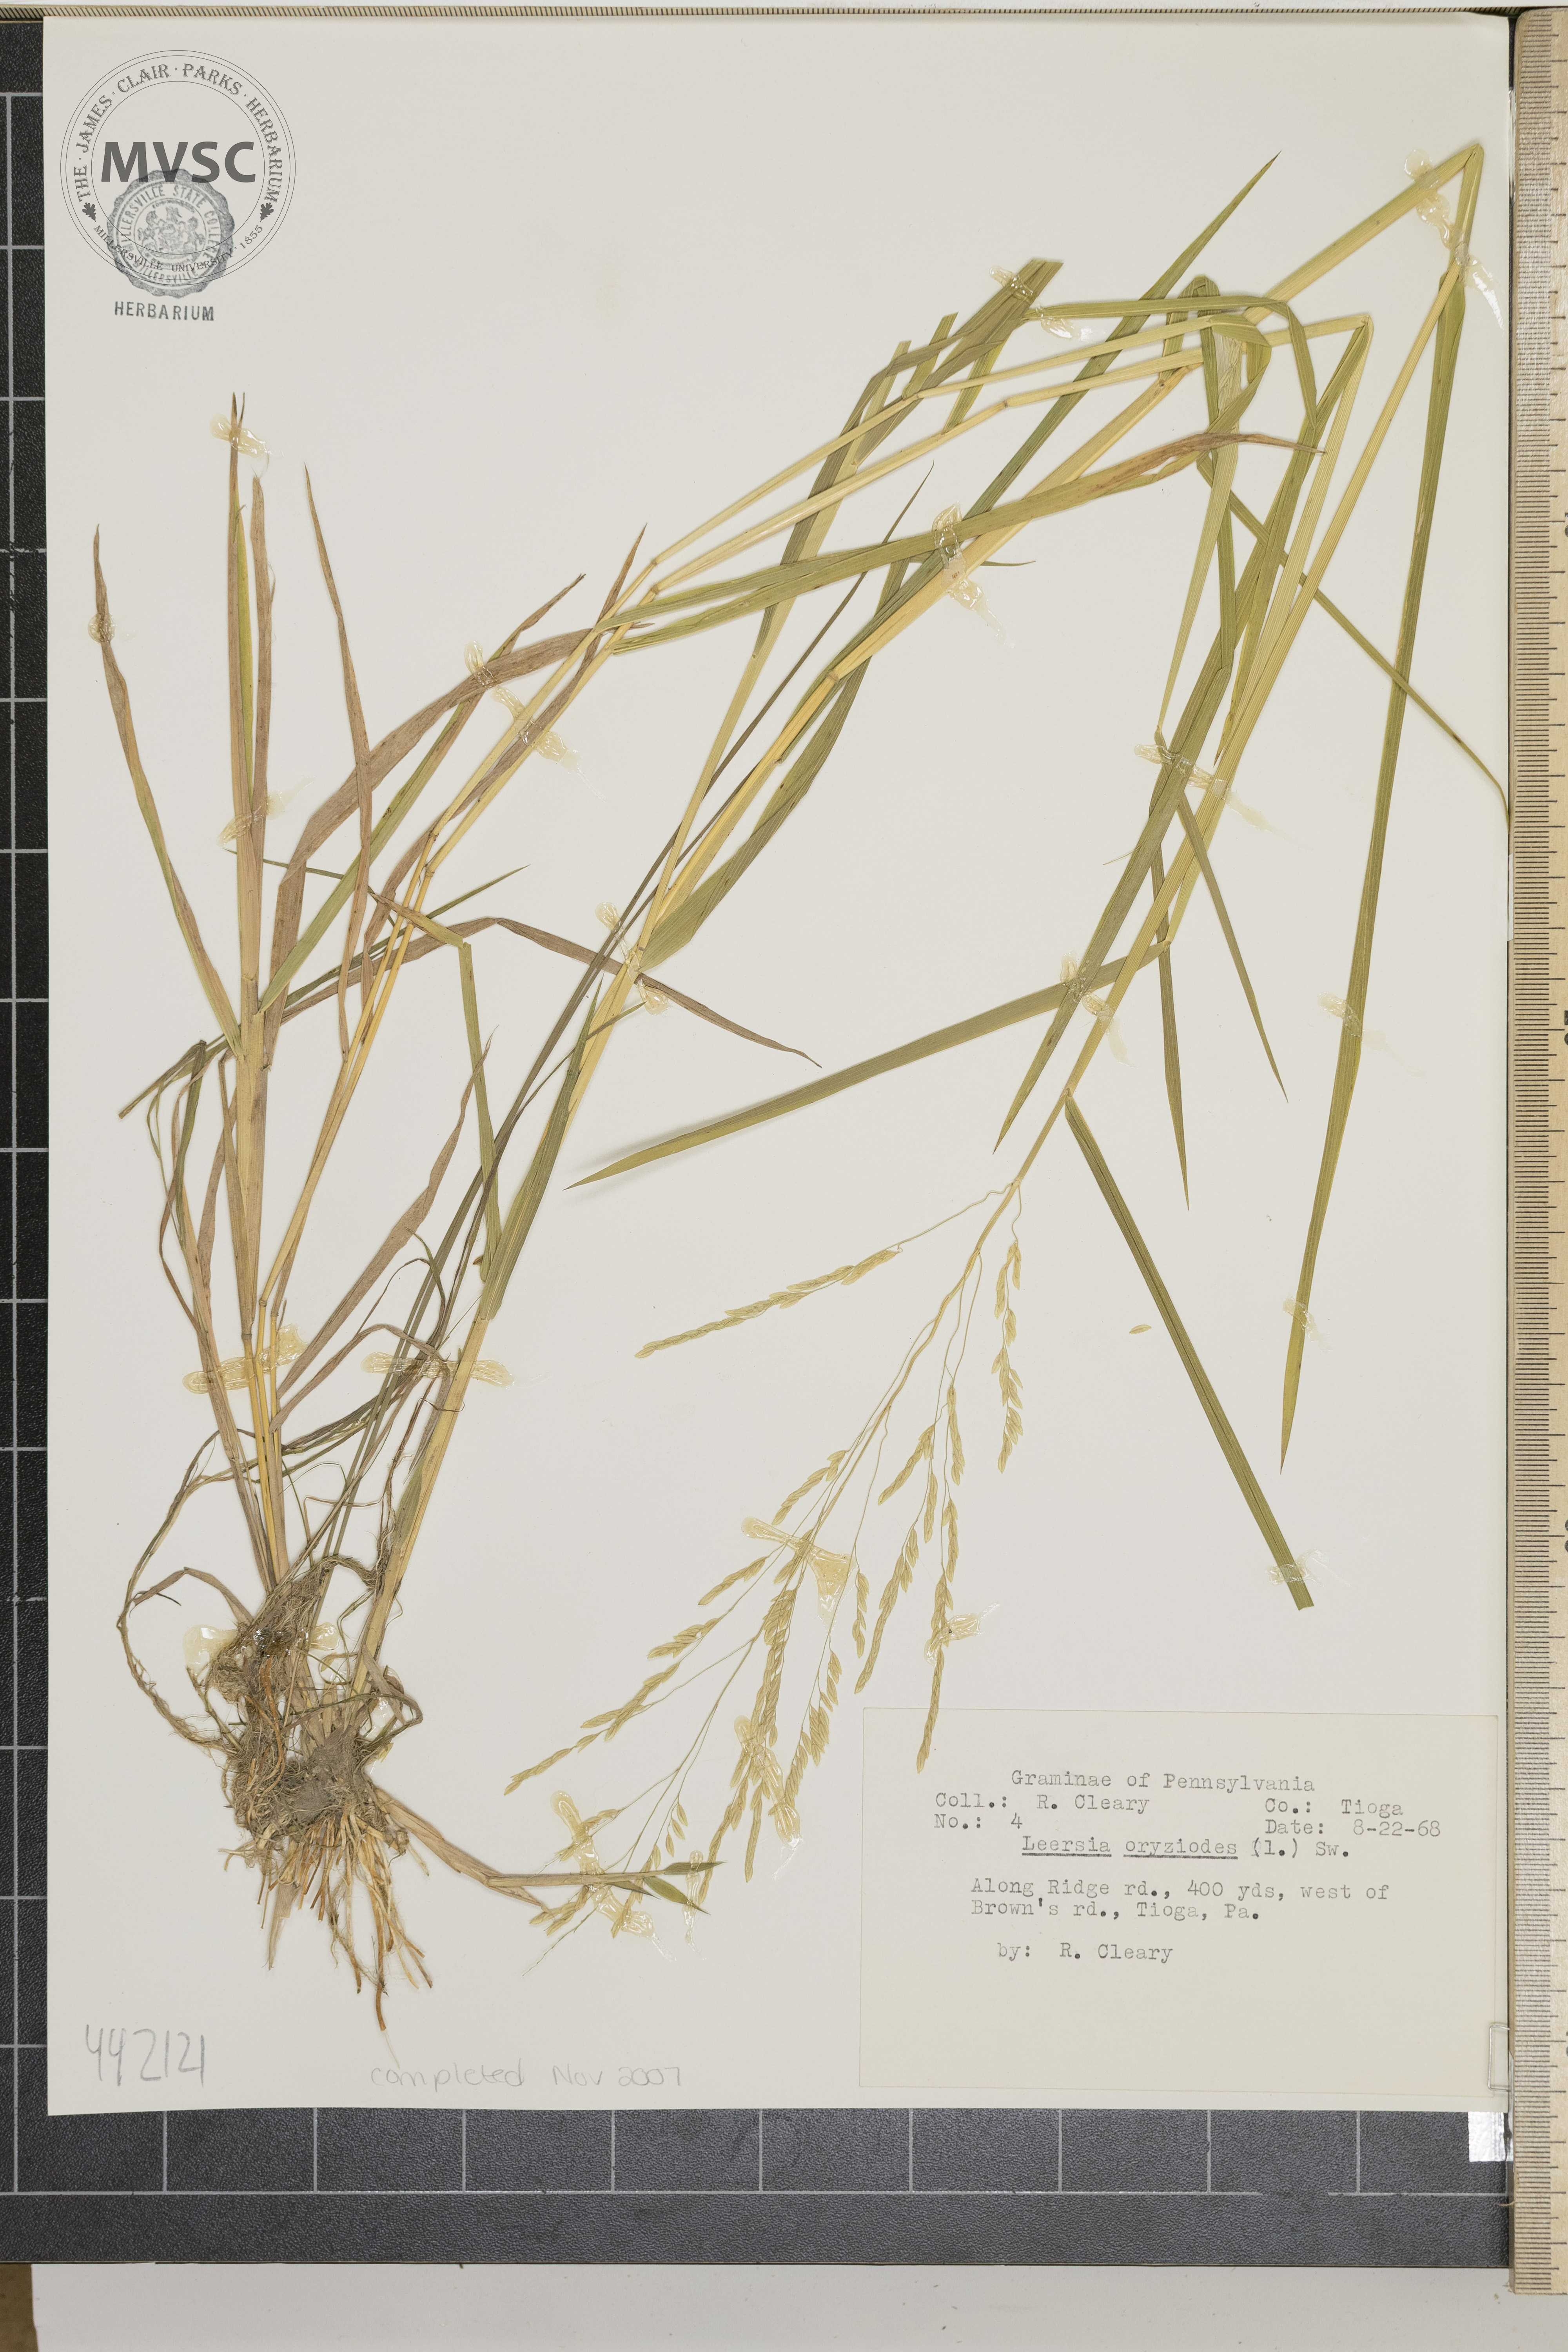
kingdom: Plantae
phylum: Tracheophyta
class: Liliopsida
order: Poales
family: Poaceae
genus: Leersia
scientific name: Leersia oryzoides
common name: Cut-grass
